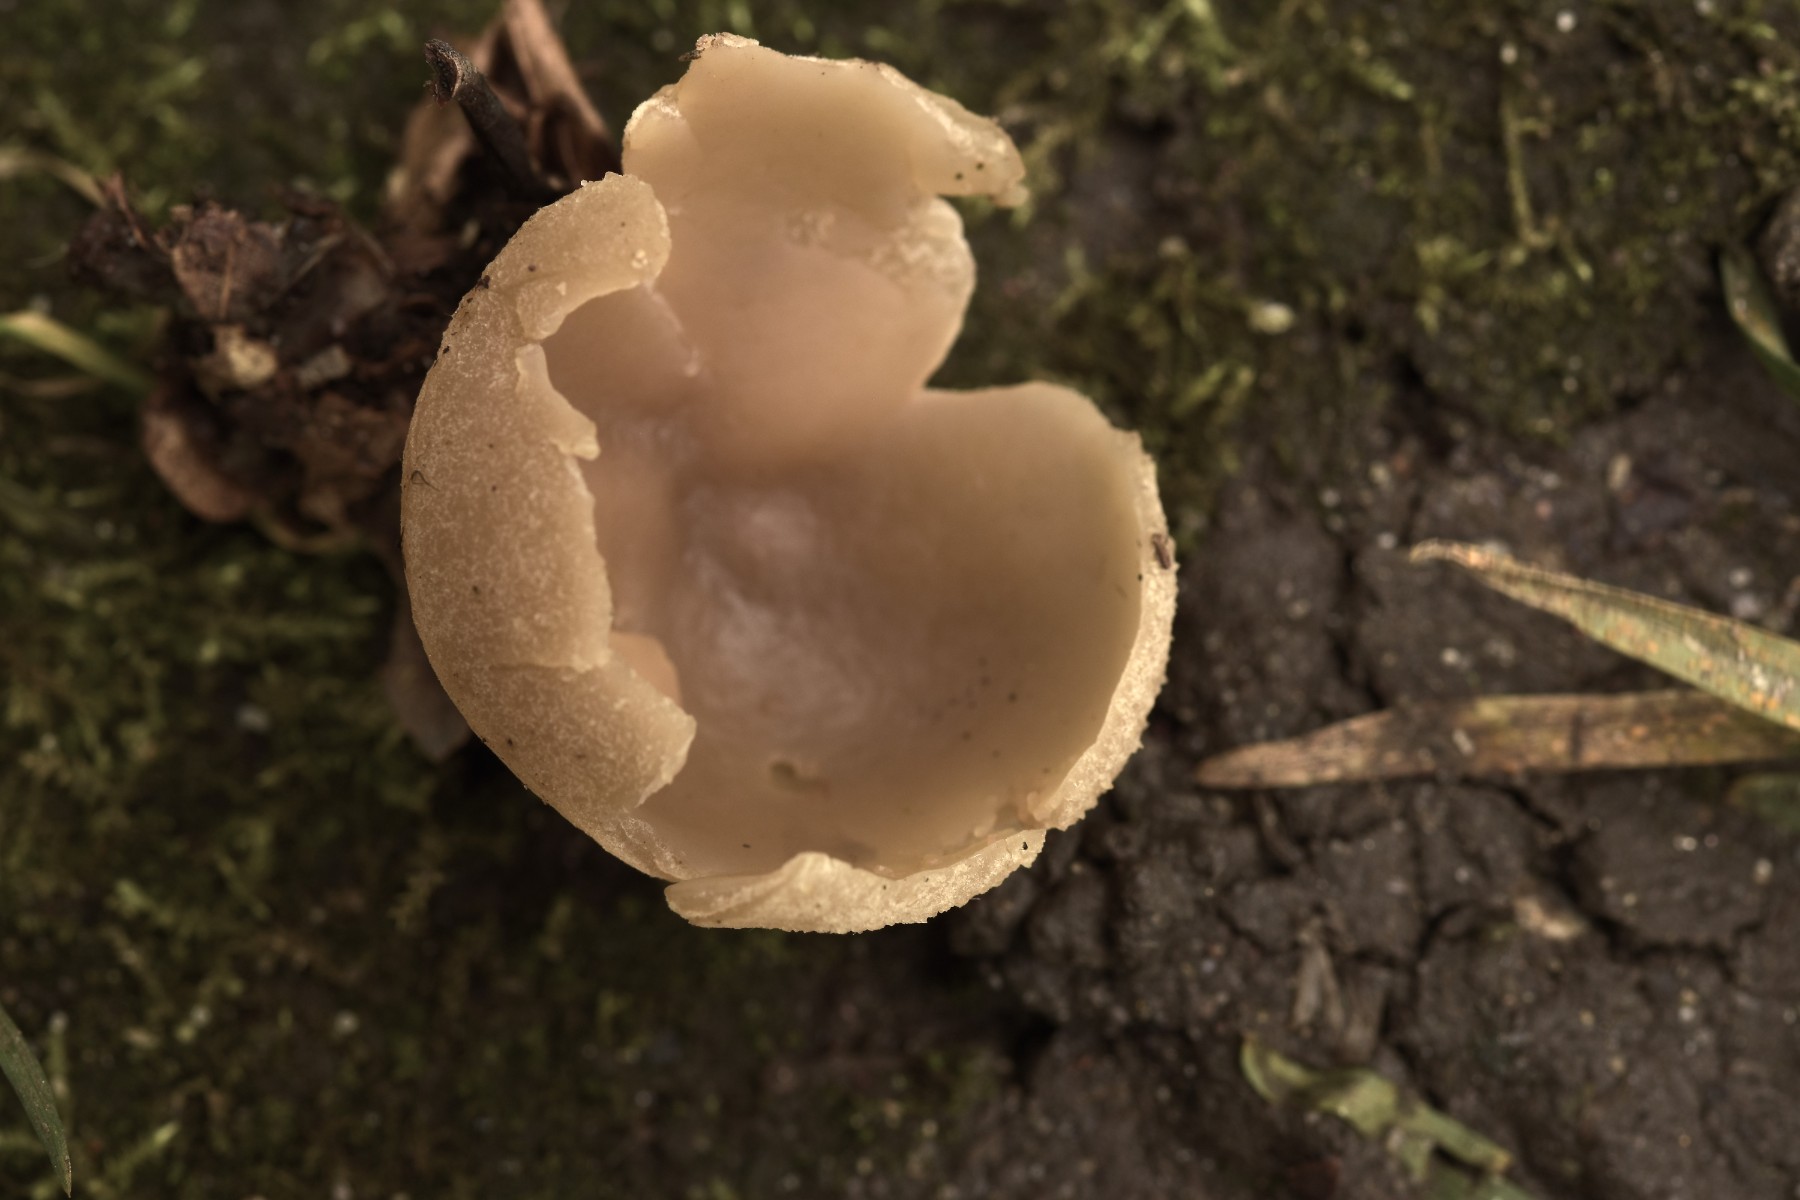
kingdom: Fungi
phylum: Ascomycota
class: Pezizomycetes
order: Pezizales
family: Pezizaceae
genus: Peziza
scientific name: Peziza varia
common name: Ved-bægersvamp
